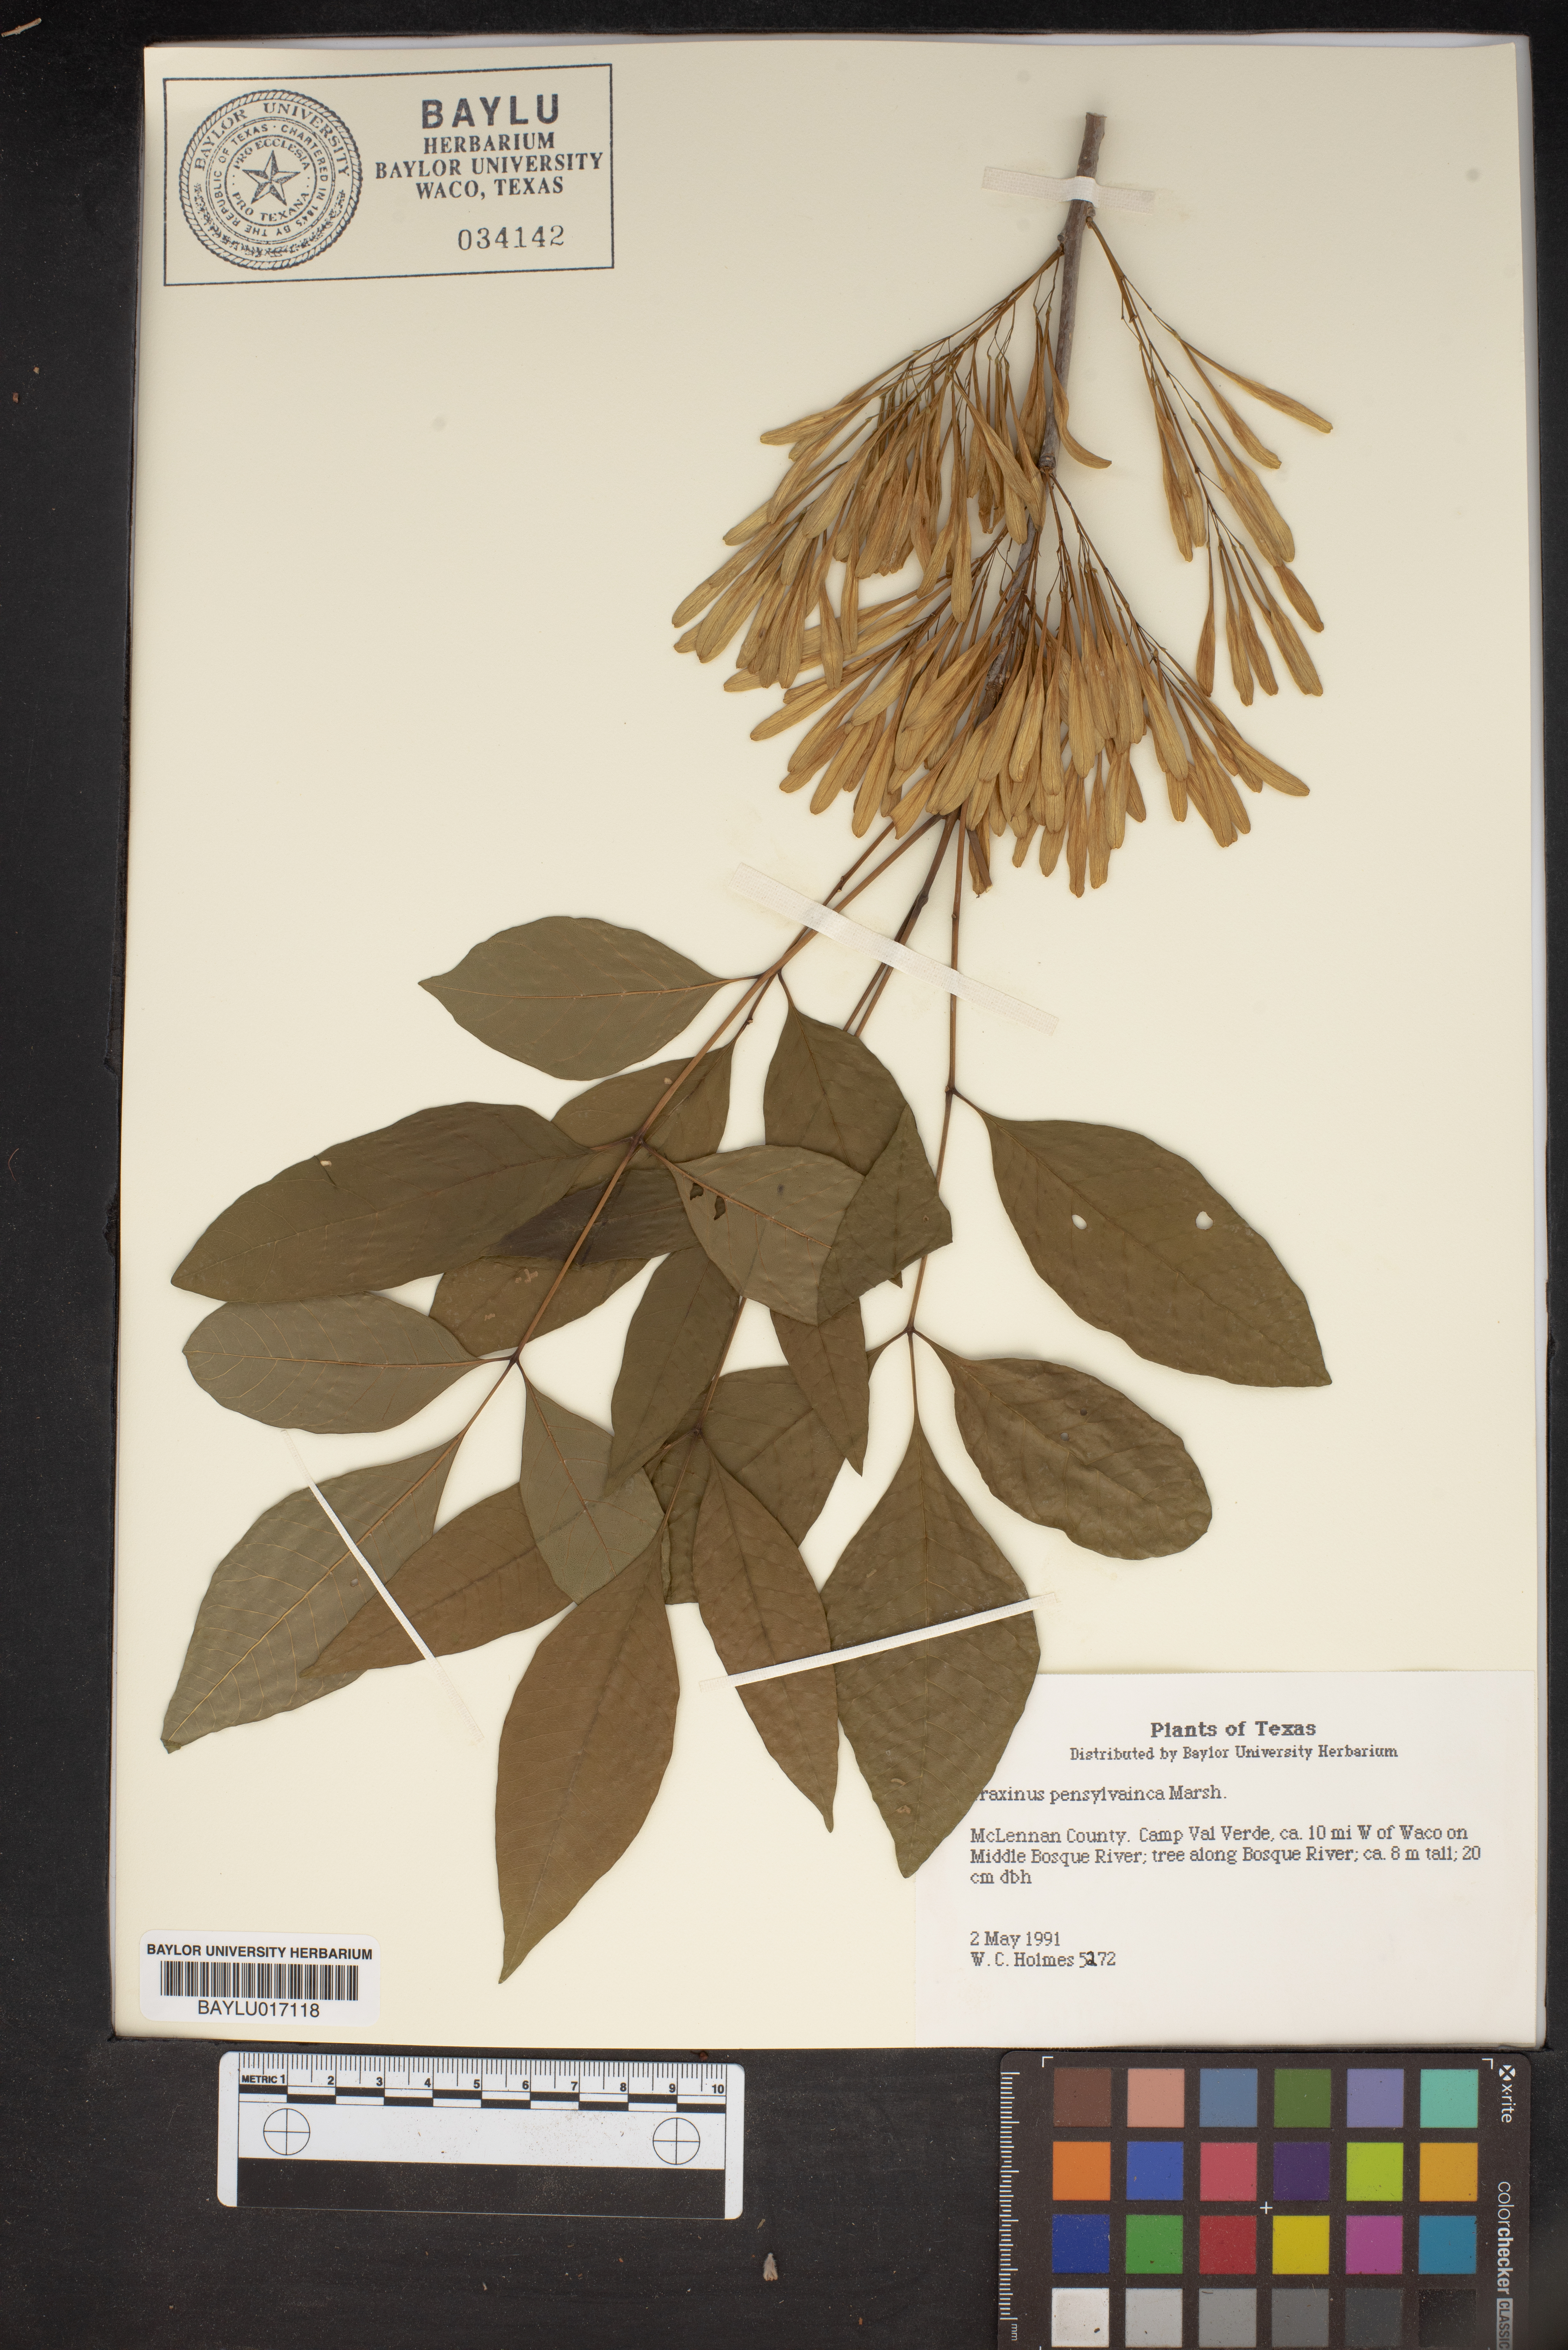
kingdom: Plantae
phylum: Tracheophyta
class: Magnoliopsida
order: Lamiales
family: Oleaceae
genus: Fraxinus
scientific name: Fraxinus pennsylvanica
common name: Green ash
